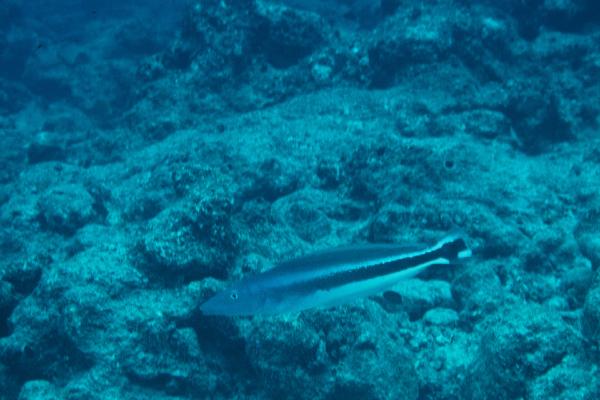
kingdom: Animalia
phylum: Chordata
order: Perciformes
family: Malacanthidae
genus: Malacanthus
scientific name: Malacanthus latovittatus
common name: Blue blanquillo
